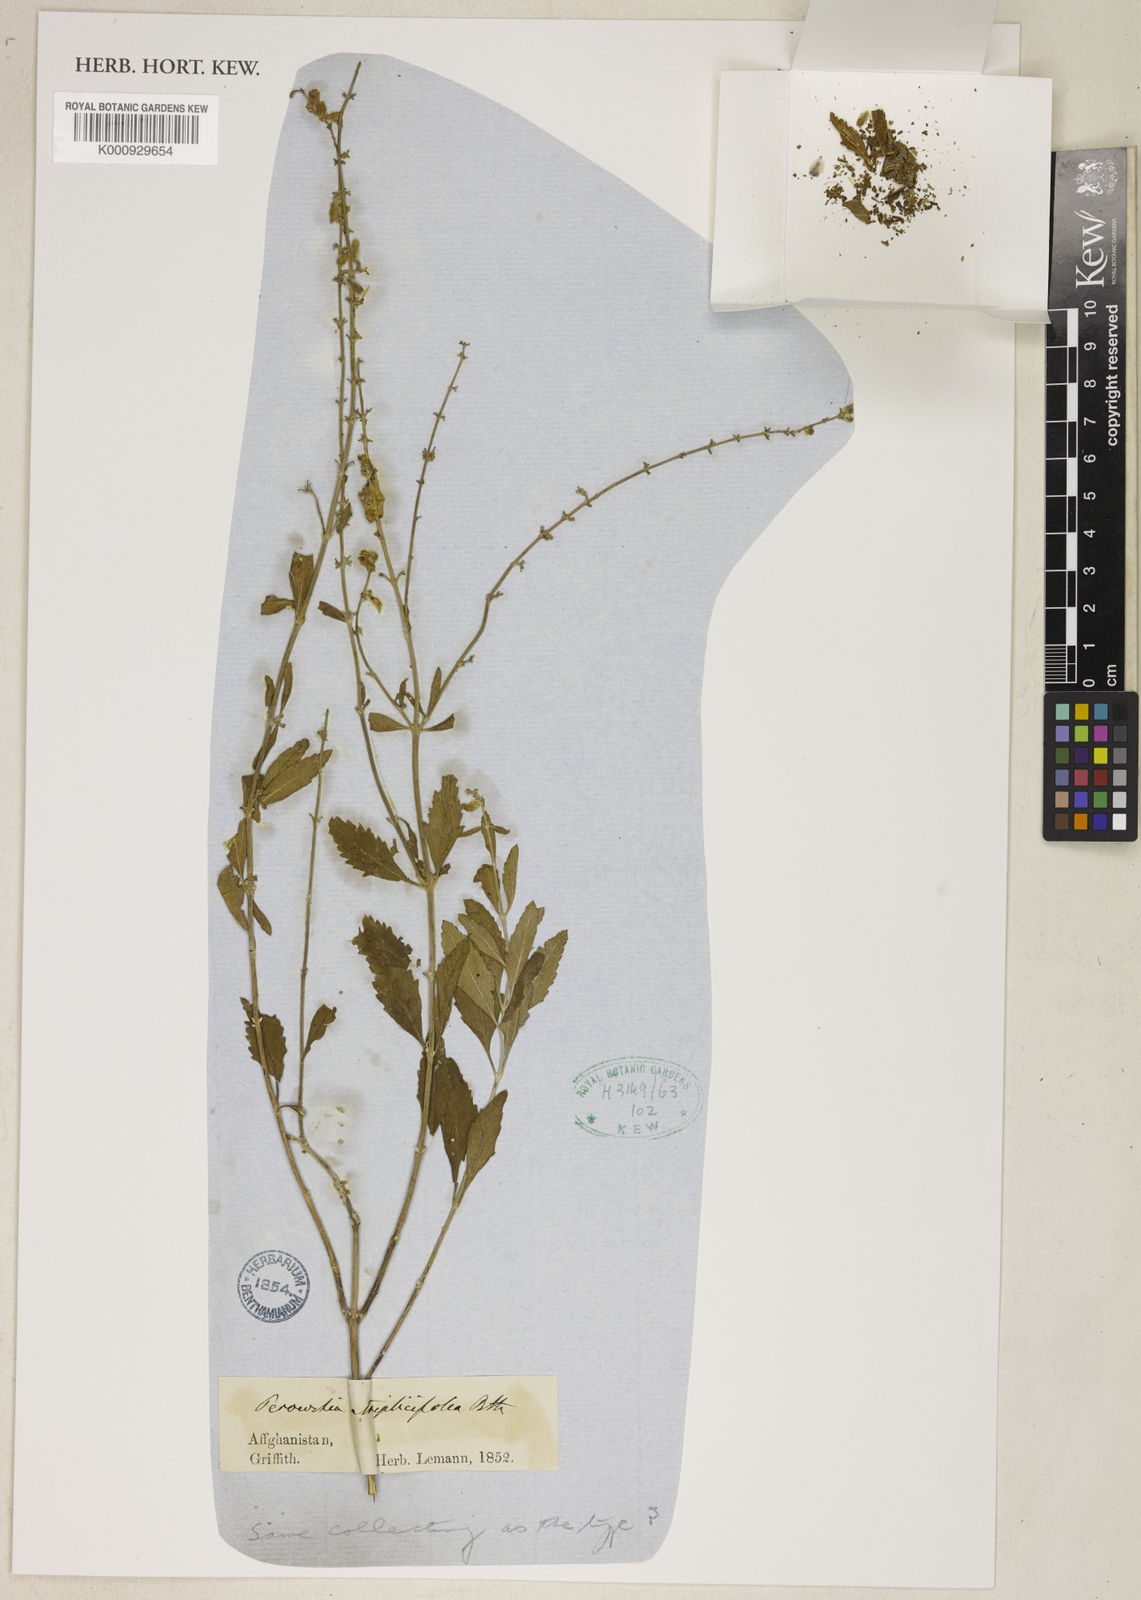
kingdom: Plantae
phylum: Tracheophyta
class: Magnoliopsida
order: Lamiales
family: Lamiaceae
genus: Salvia
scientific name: Salvia yangii
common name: Russian sage
